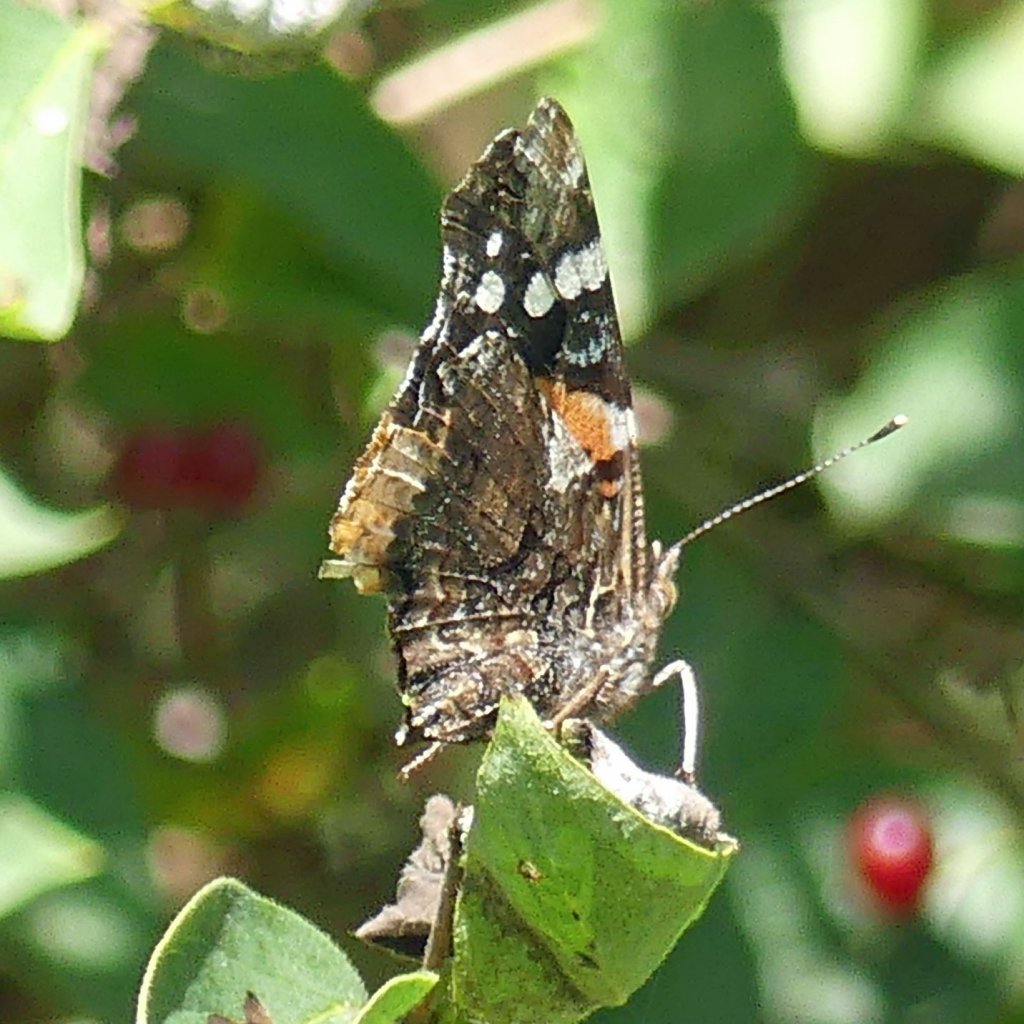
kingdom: Animalia
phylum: Arthropoda
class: Insecta
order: Lepidoptera
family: Nymphalidae
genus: Vanessa
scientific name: Vanessa atalanta
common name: Red Admiral
